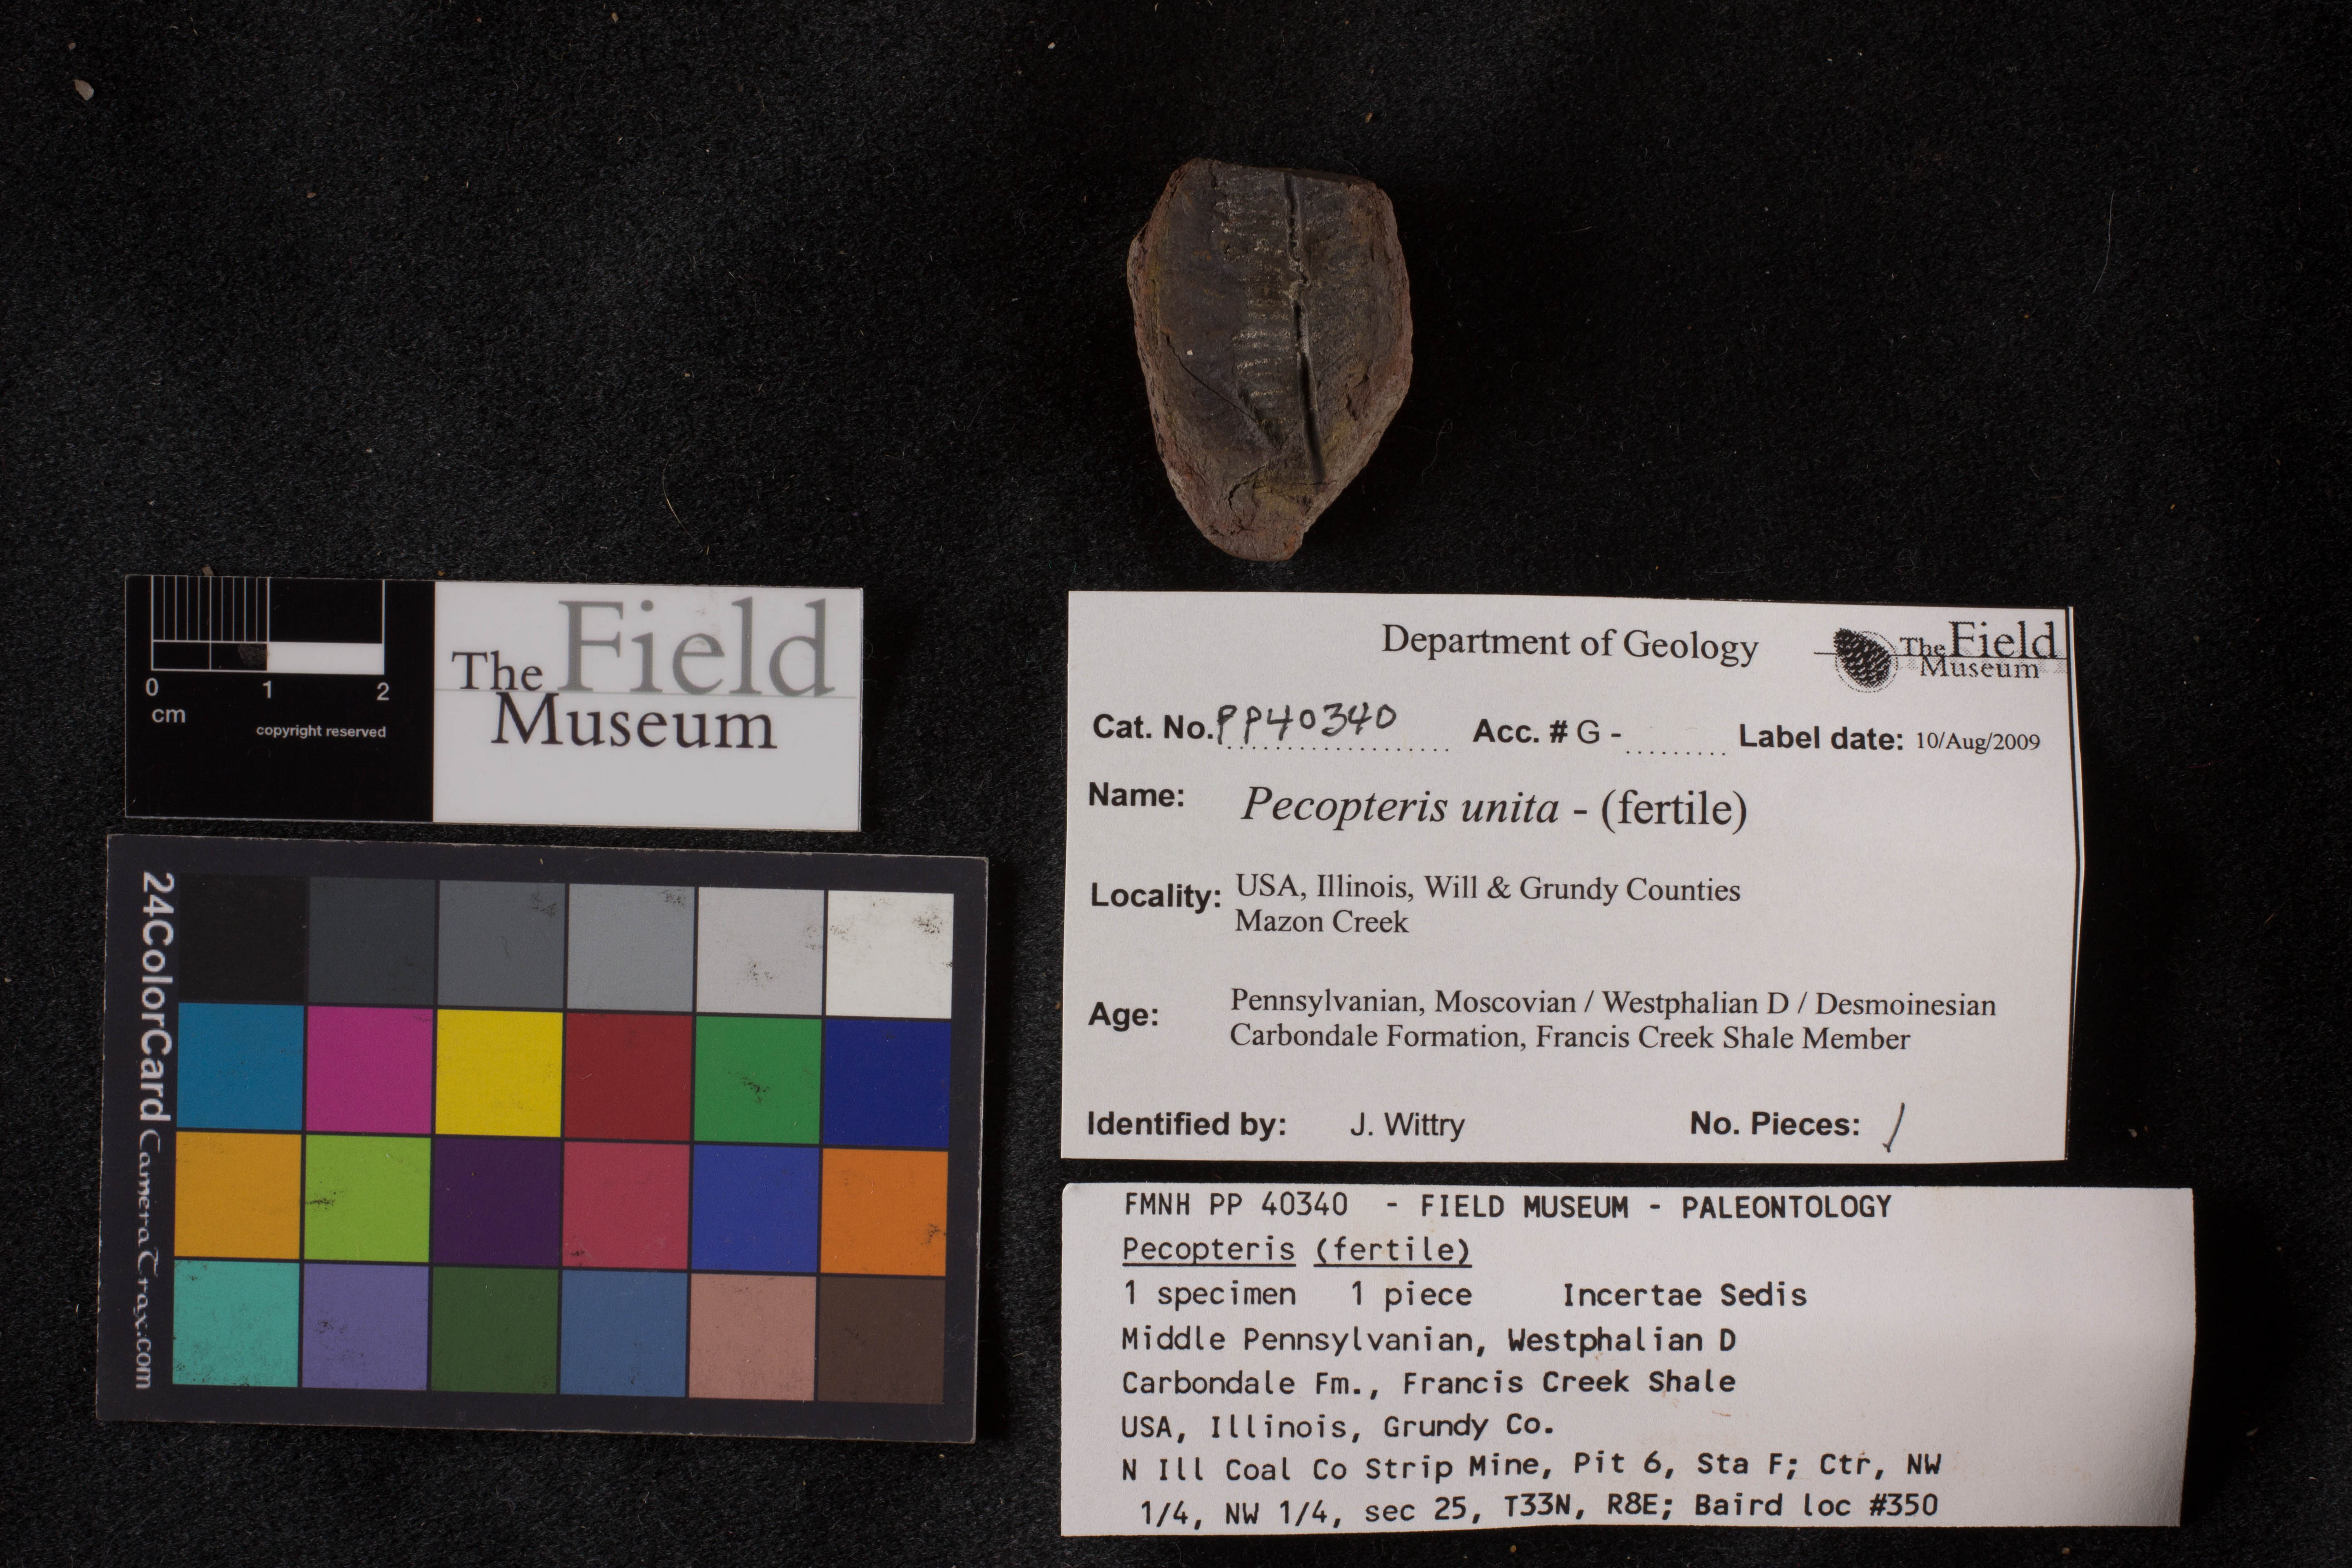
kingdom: Plantae
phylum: Tracheophyta
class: Polypodiopsida
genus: Diplazites
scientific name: Diplazites
